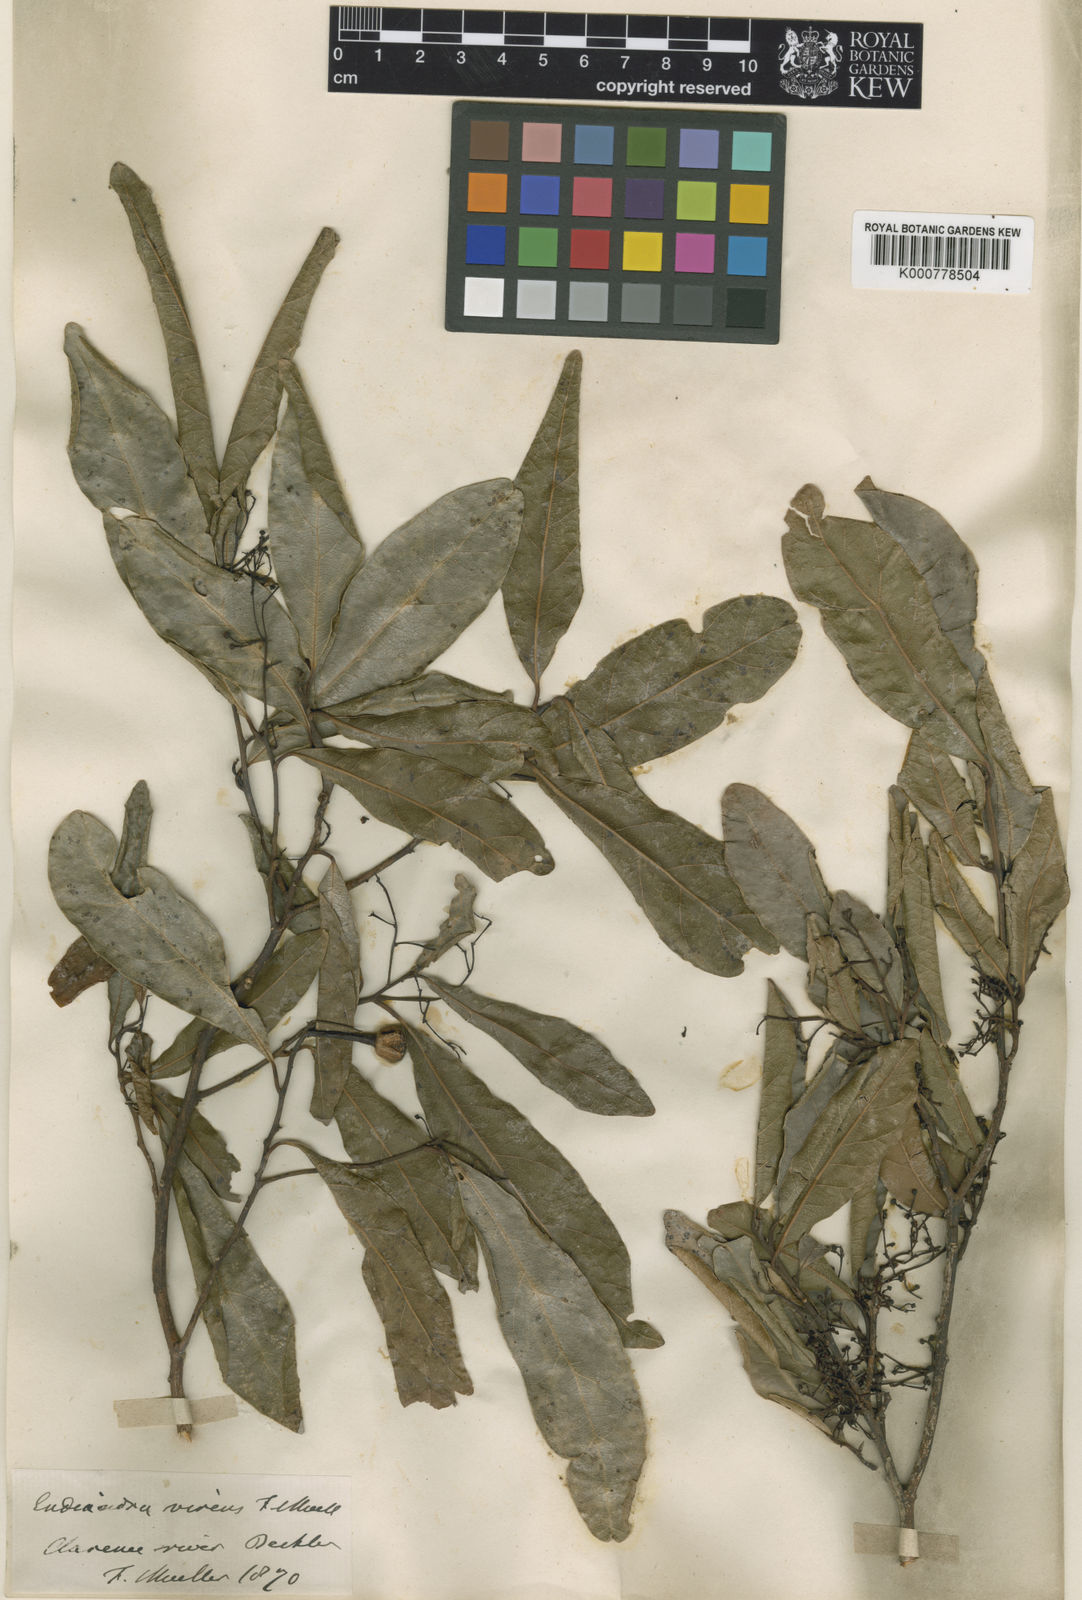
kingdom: Plantae
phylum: Tracheophyta
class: Magnoliopsida
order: Laurales
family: Lauraceae
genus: Endiandra
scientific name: Endiandra virens
